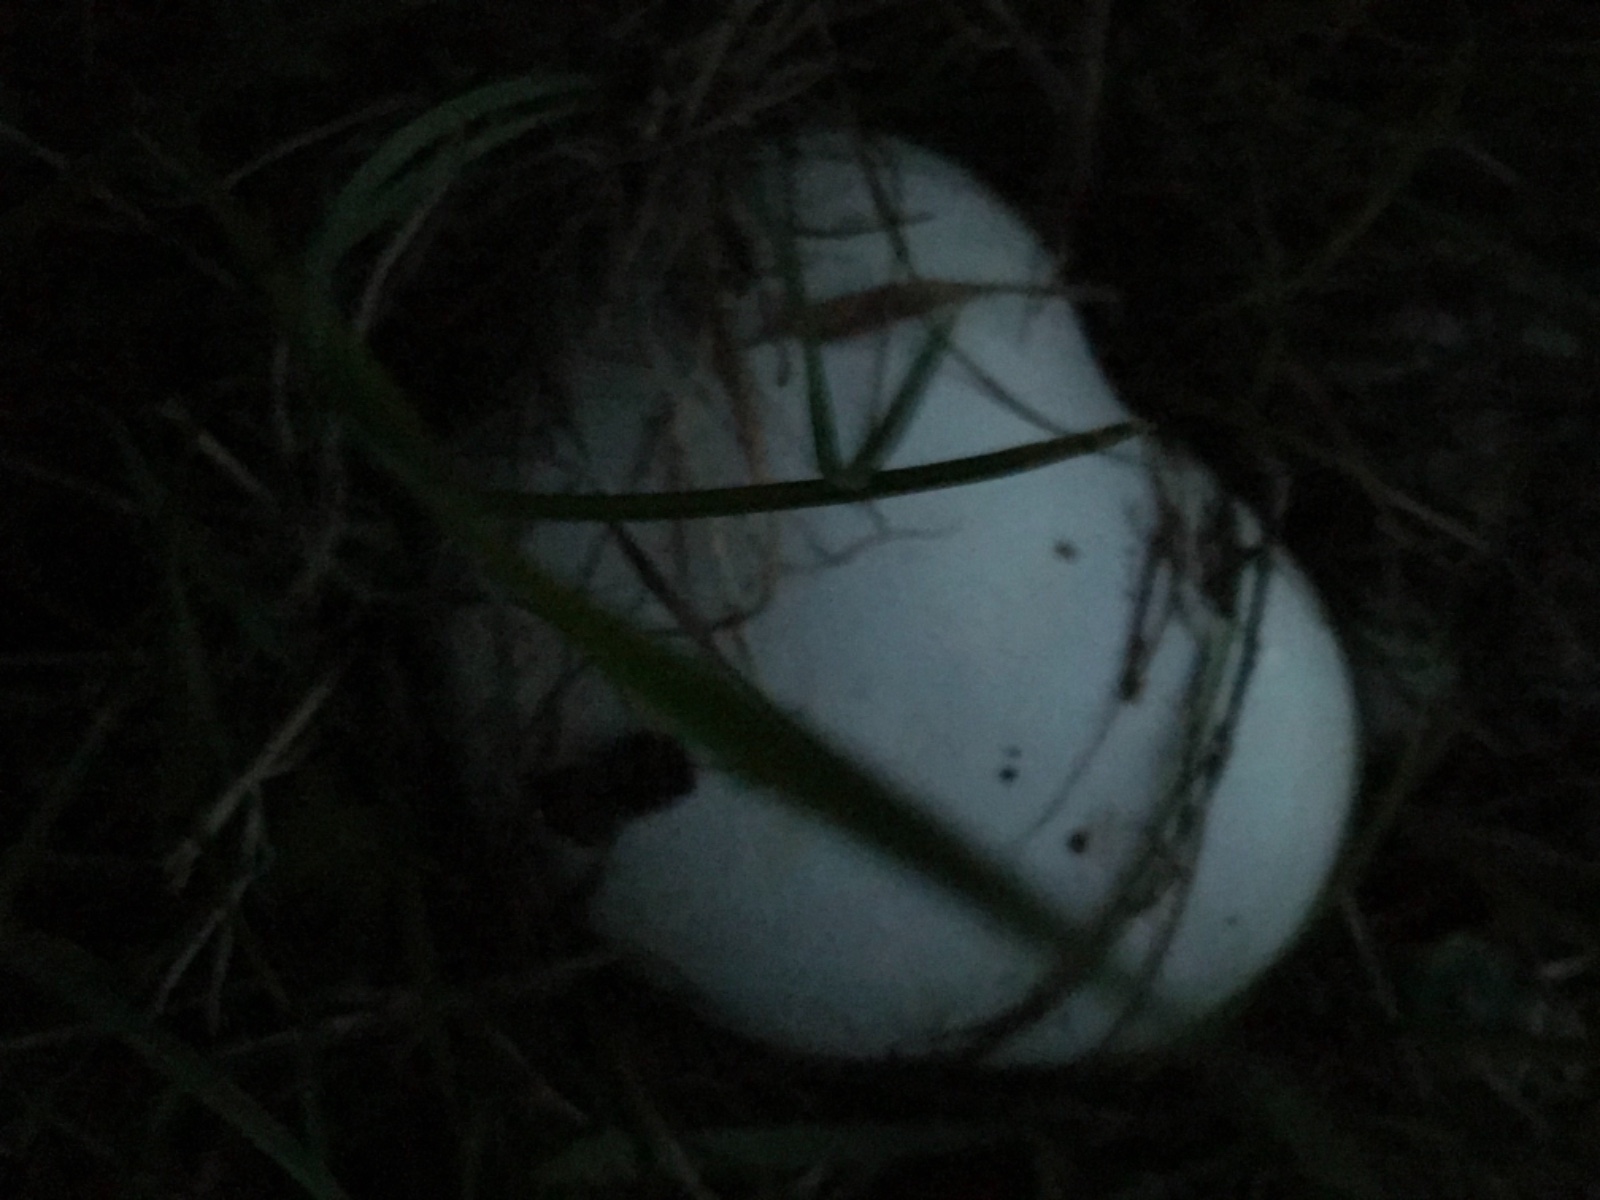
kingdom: Fungi
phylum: Basidiomycota
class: Agaricomycetes
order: Agaricales
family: Lycoperdaceae
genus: Calvatia
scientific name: Calvatia gigantea
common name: kæmpestøvbold
